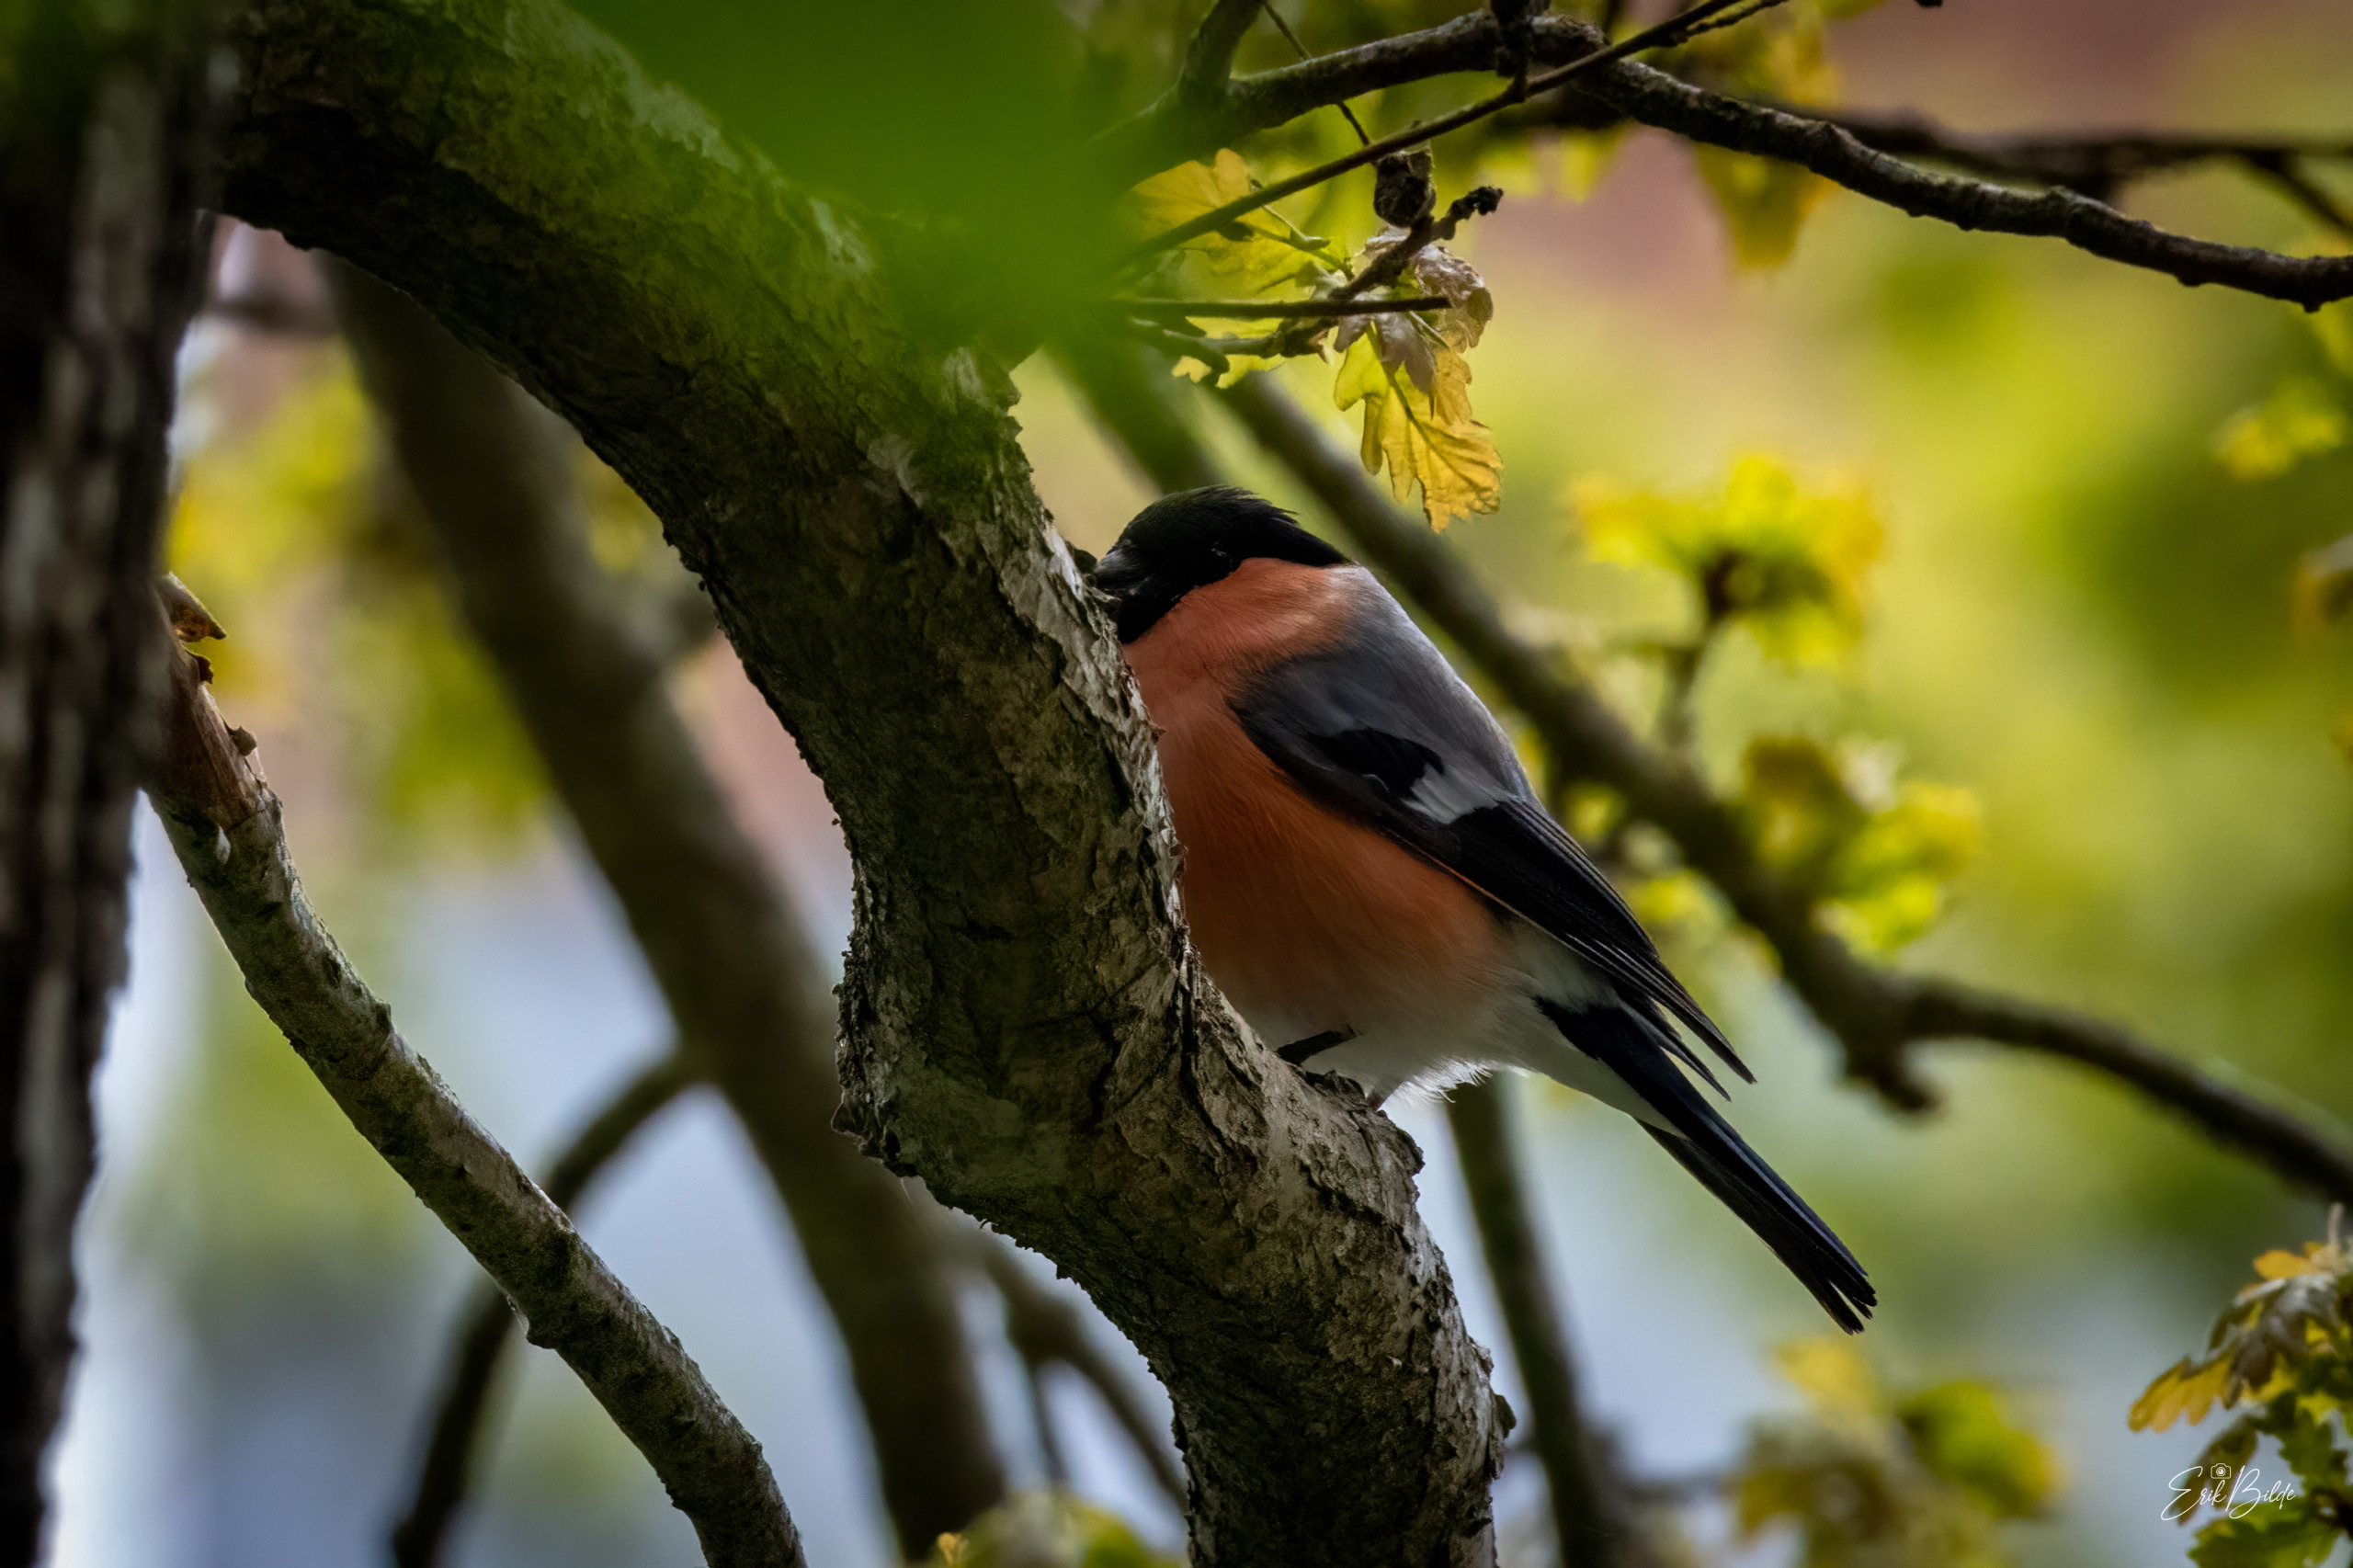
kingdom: Animalia
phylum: Chordata
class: Aves
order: Passeriformes
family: Fringillidae
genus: Pyrrhula
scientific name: Pyrrhula pyrrhula
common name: Dompap
